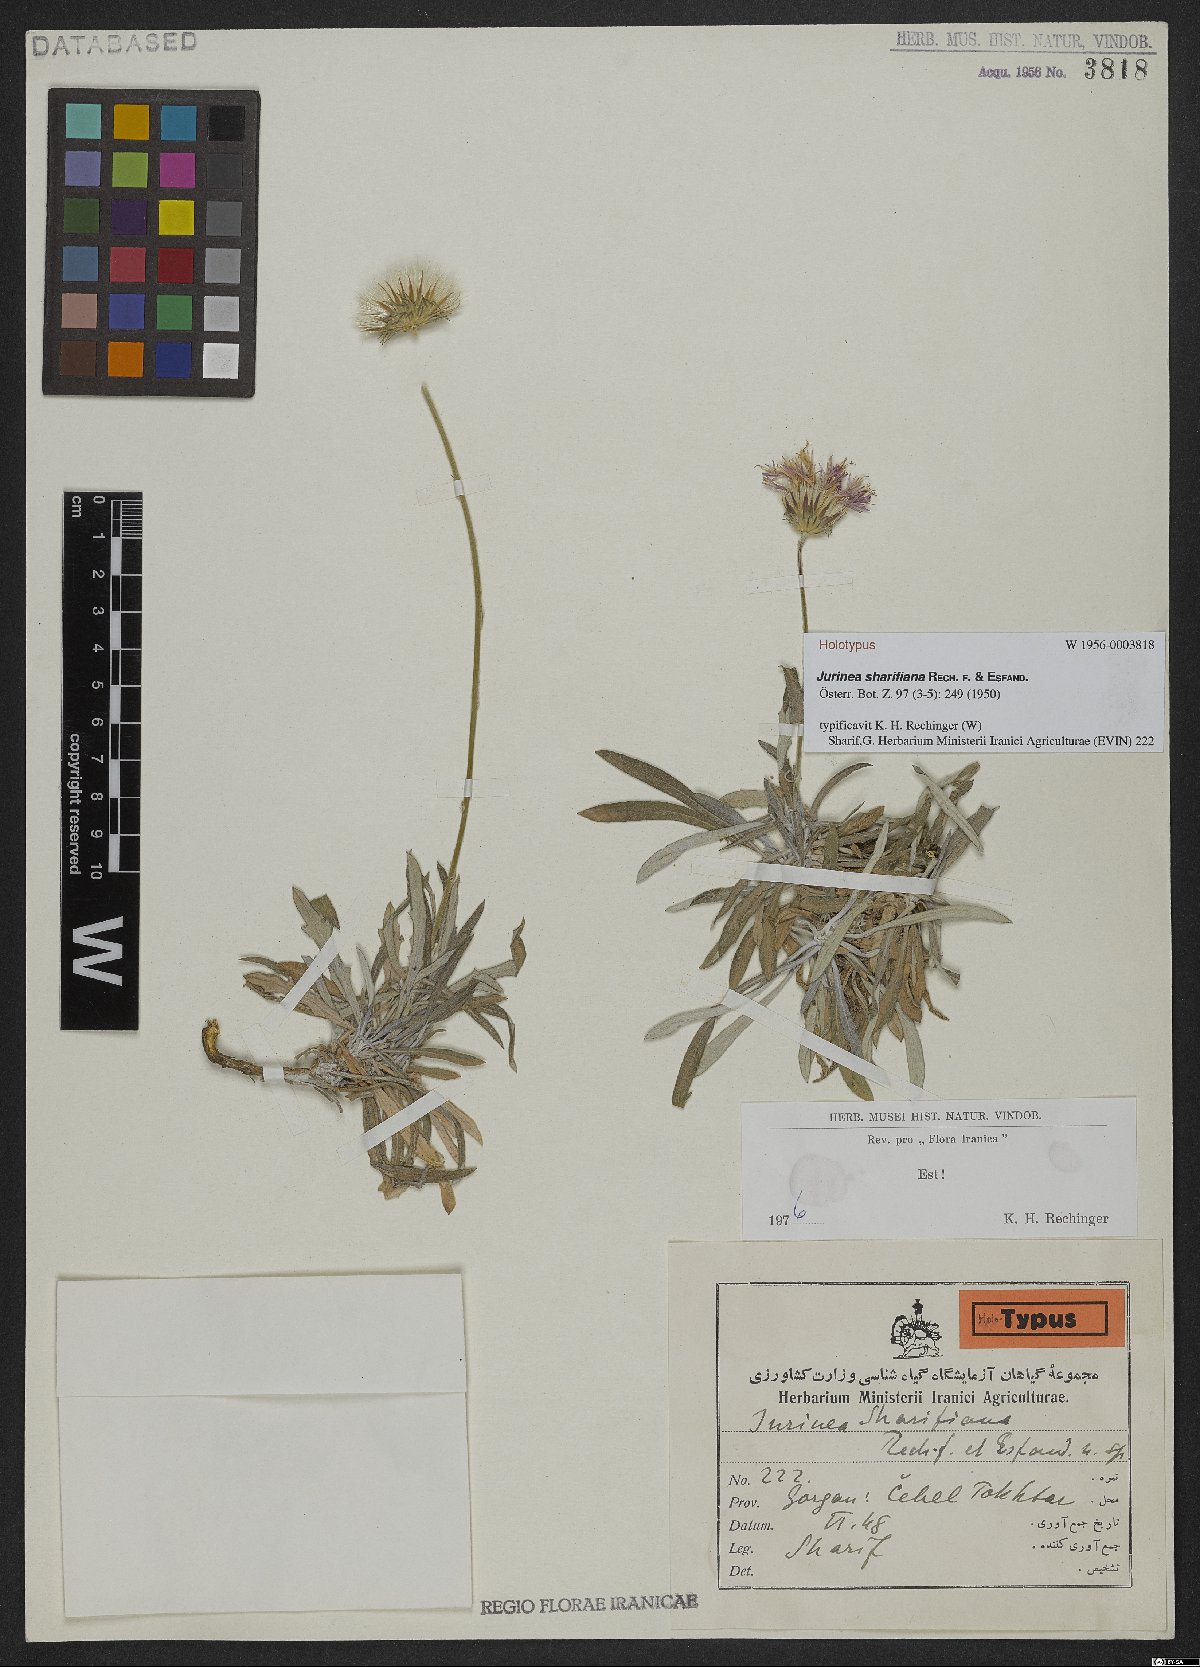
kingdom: Plantae
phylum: Tracheophyta
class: Magnoliopsida
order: Asterales
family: Asteraceae
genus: Jurinea
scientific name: Jurinea sharifiana
